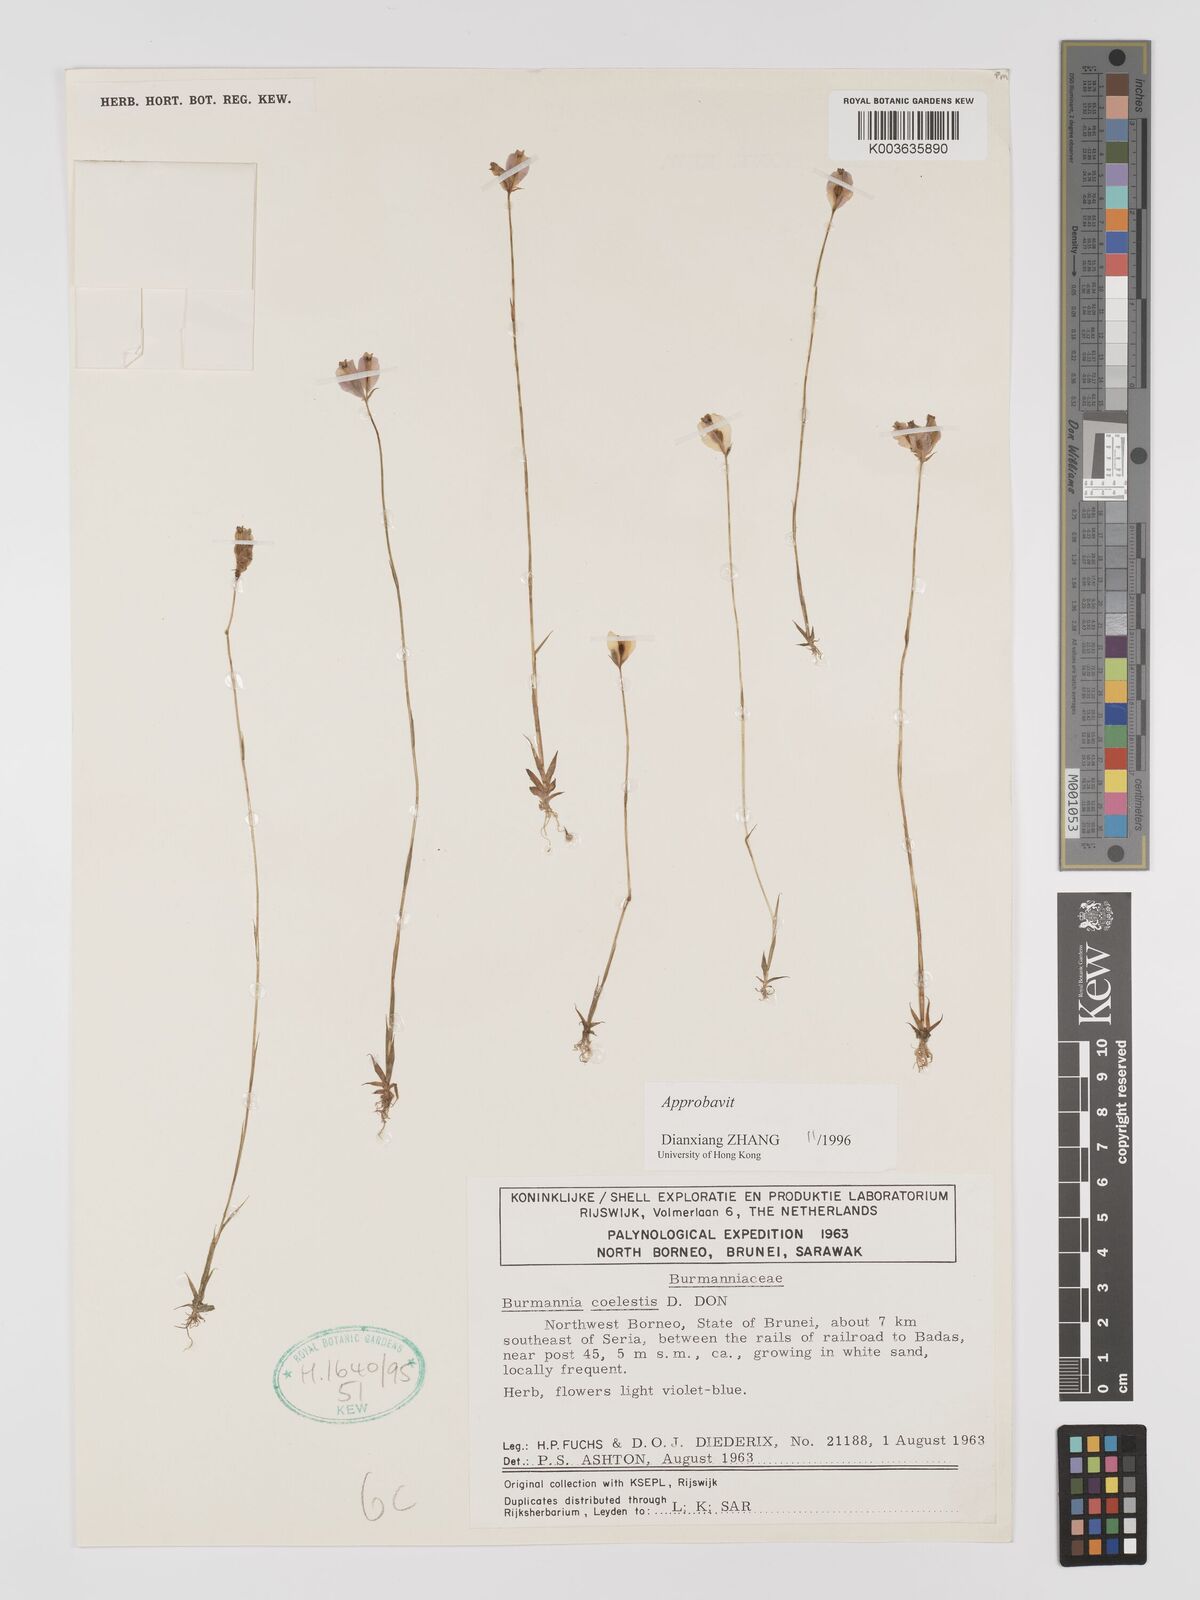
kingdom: Plantae
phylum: Tracheophyta
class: Liliopsida
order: Dioscoreales
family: Burmanniaceae
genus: Burmannia
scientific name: Burmannia coelestis
